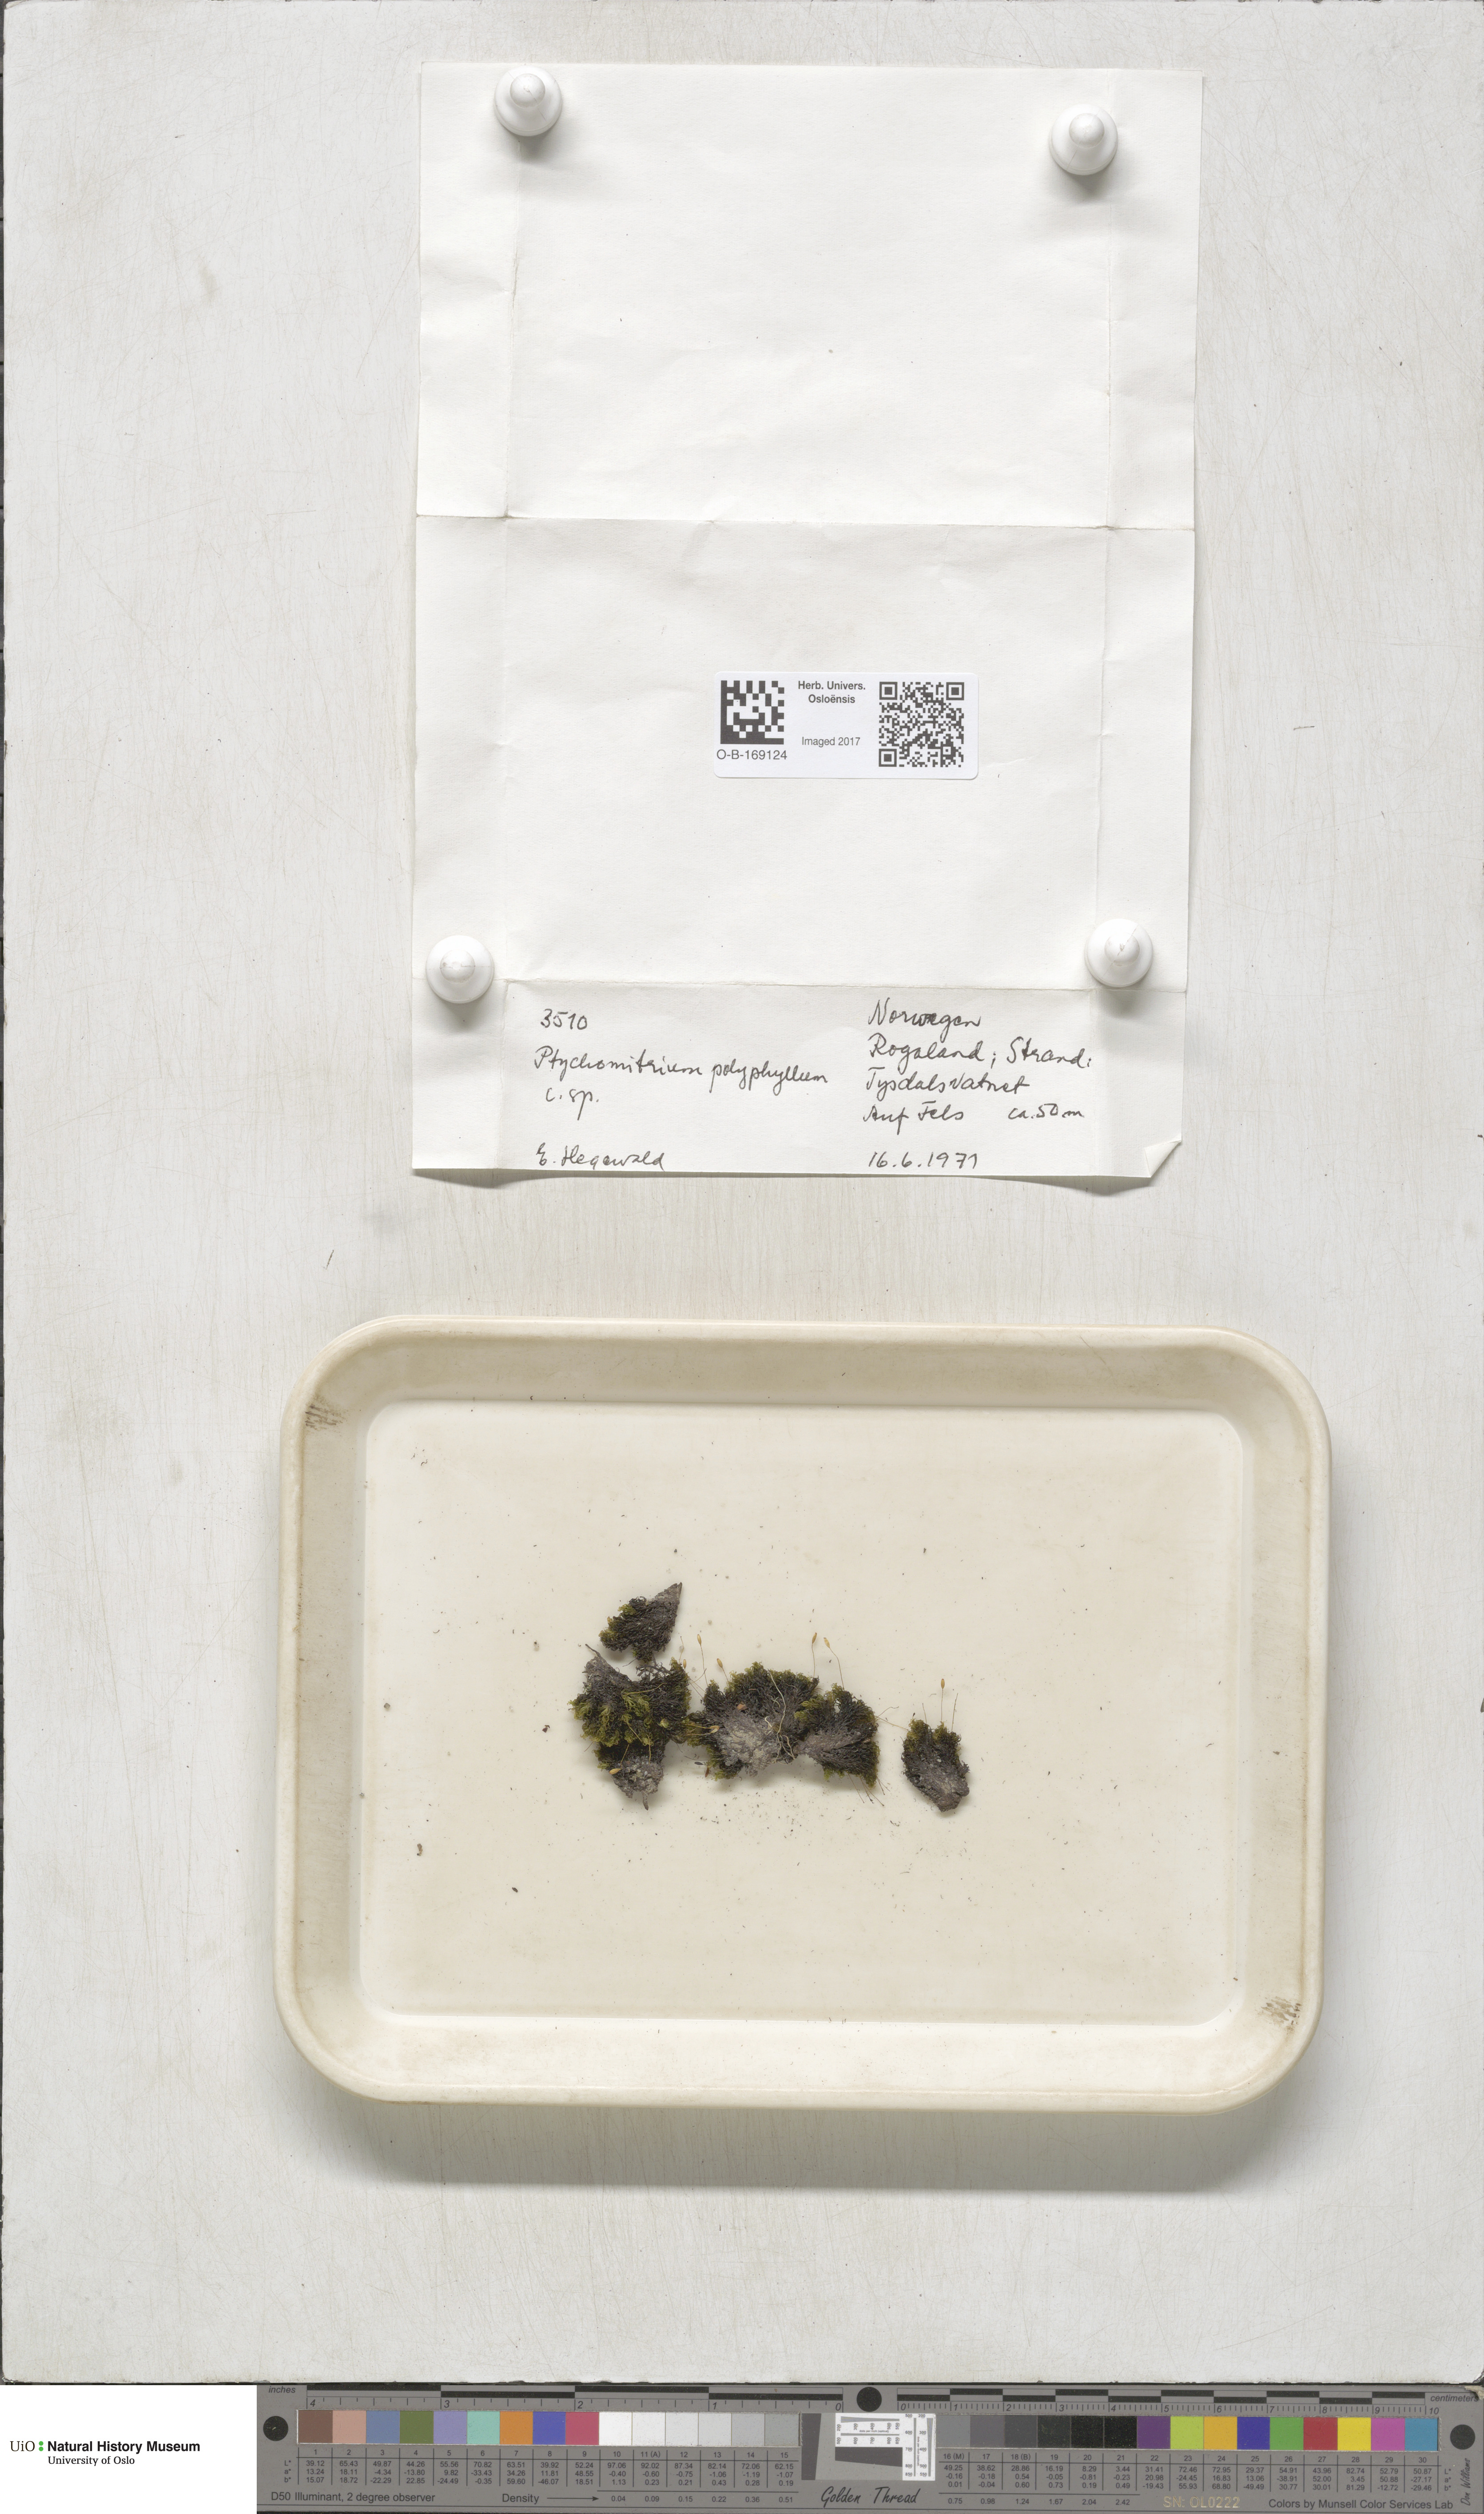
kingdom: Plantae
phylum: Bryophyta
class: Bryopsida
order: Grimmiales
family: Ptychomitriaceae
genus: Ptychomitrium
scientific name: Ptychomitrium polyphyllum
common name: Greater pincushion
